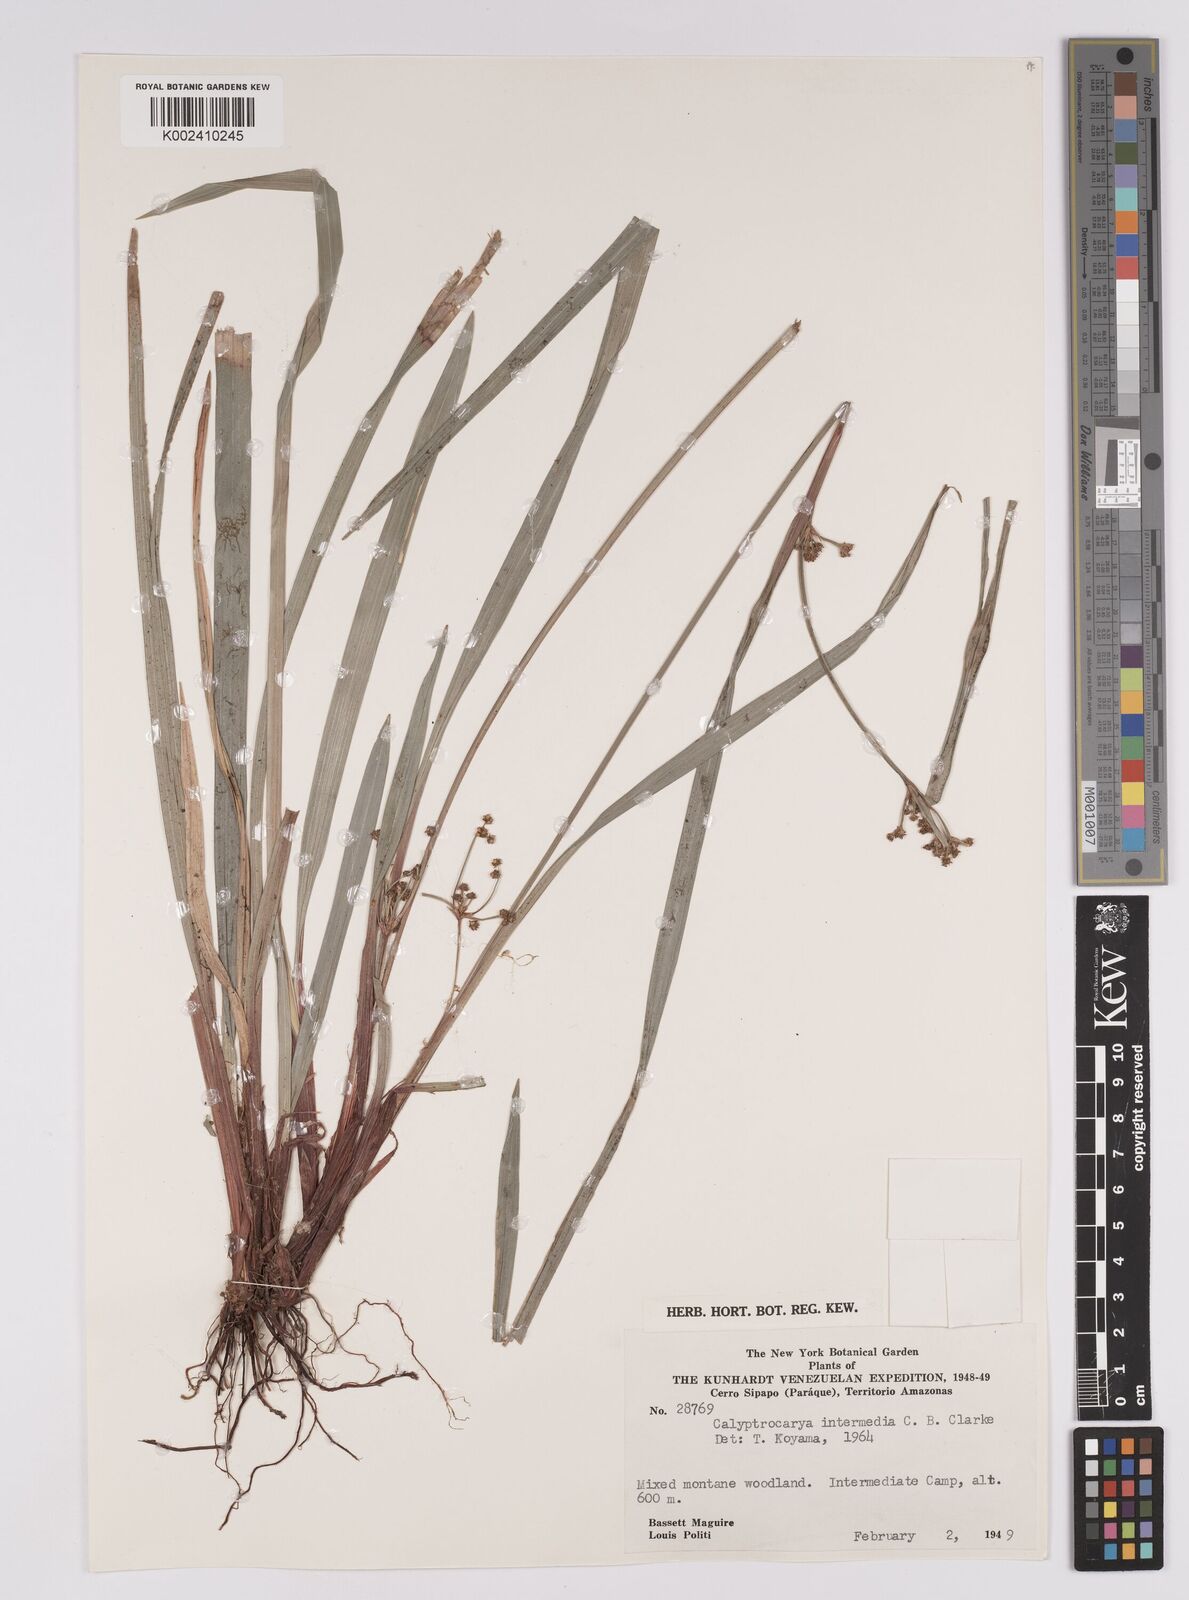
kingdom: Plantae
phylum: Tracheophyta
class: Liliopsida
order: Poales
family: Cyperaceae
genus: Calyptrocarya
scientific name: Calyptrocarya glomerulata
